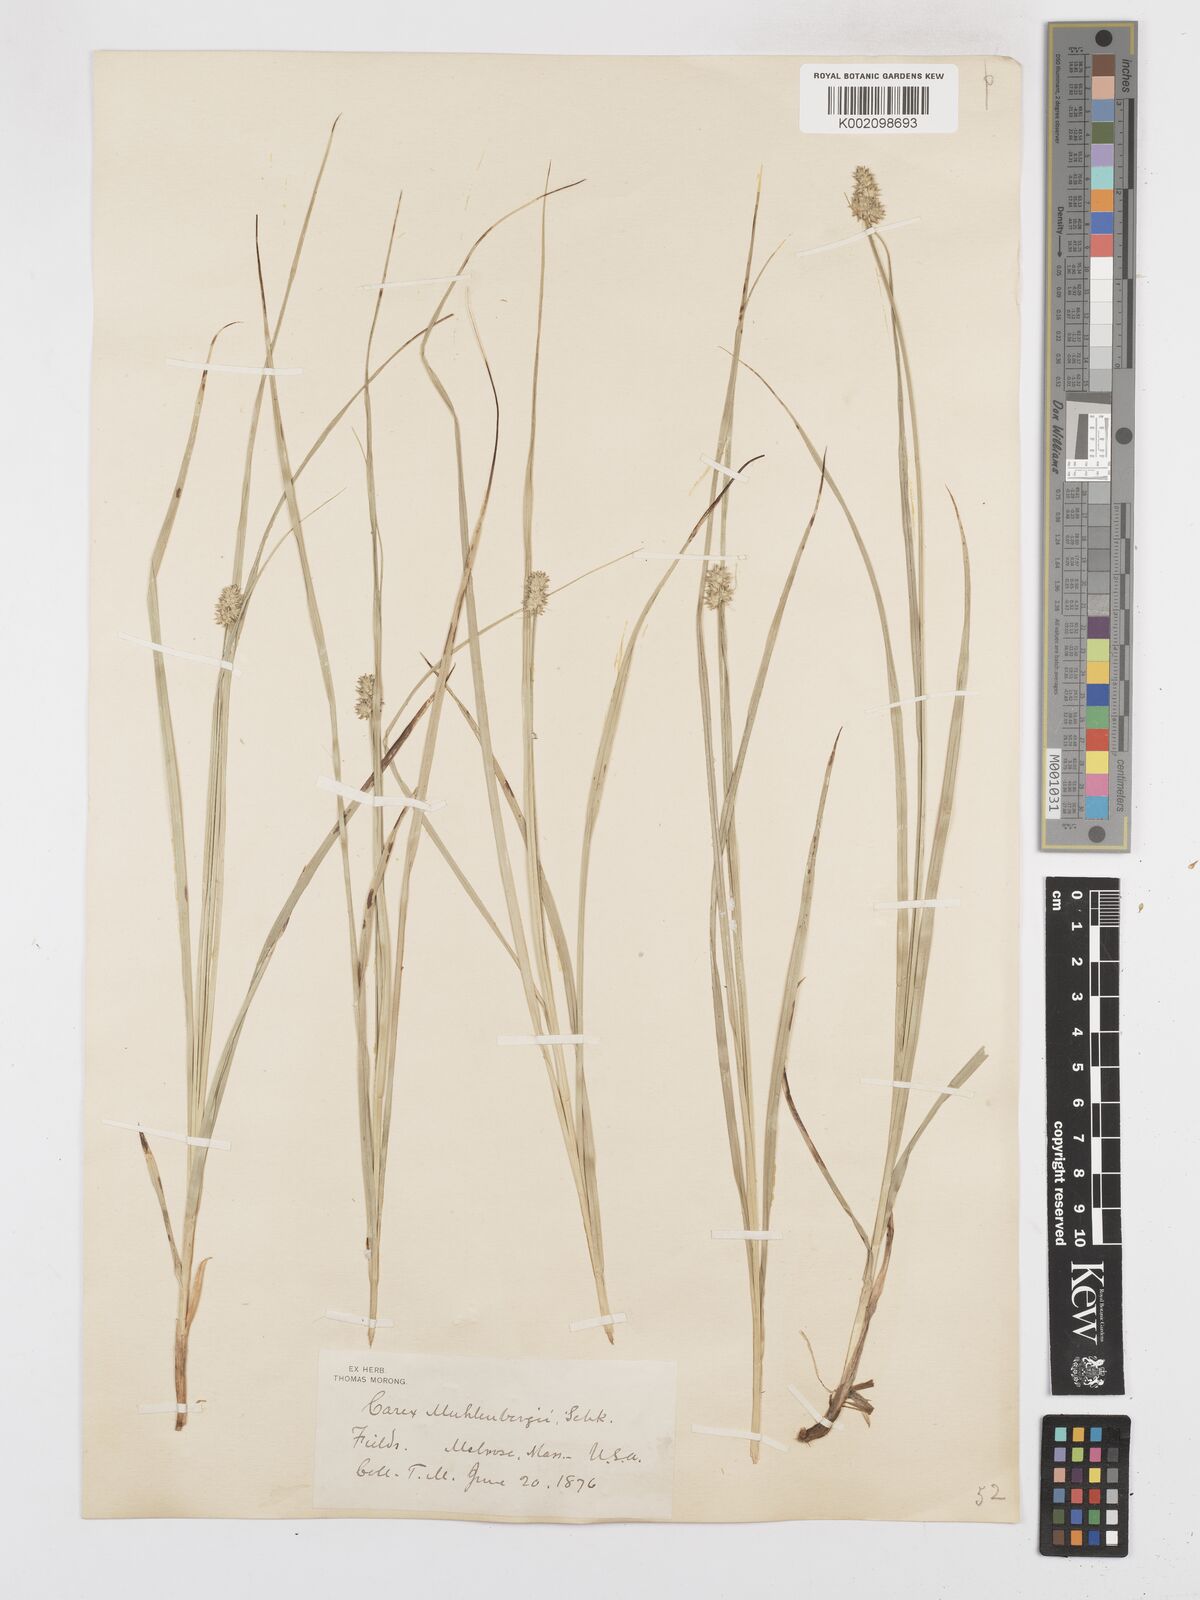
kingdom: Plantae
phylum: Tracheophyta
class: Liliopsida
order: Poales
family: Cyperaceae
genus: Carex
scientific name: Carex muehlenbergii
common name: Muhlenberg's bracted sedge
